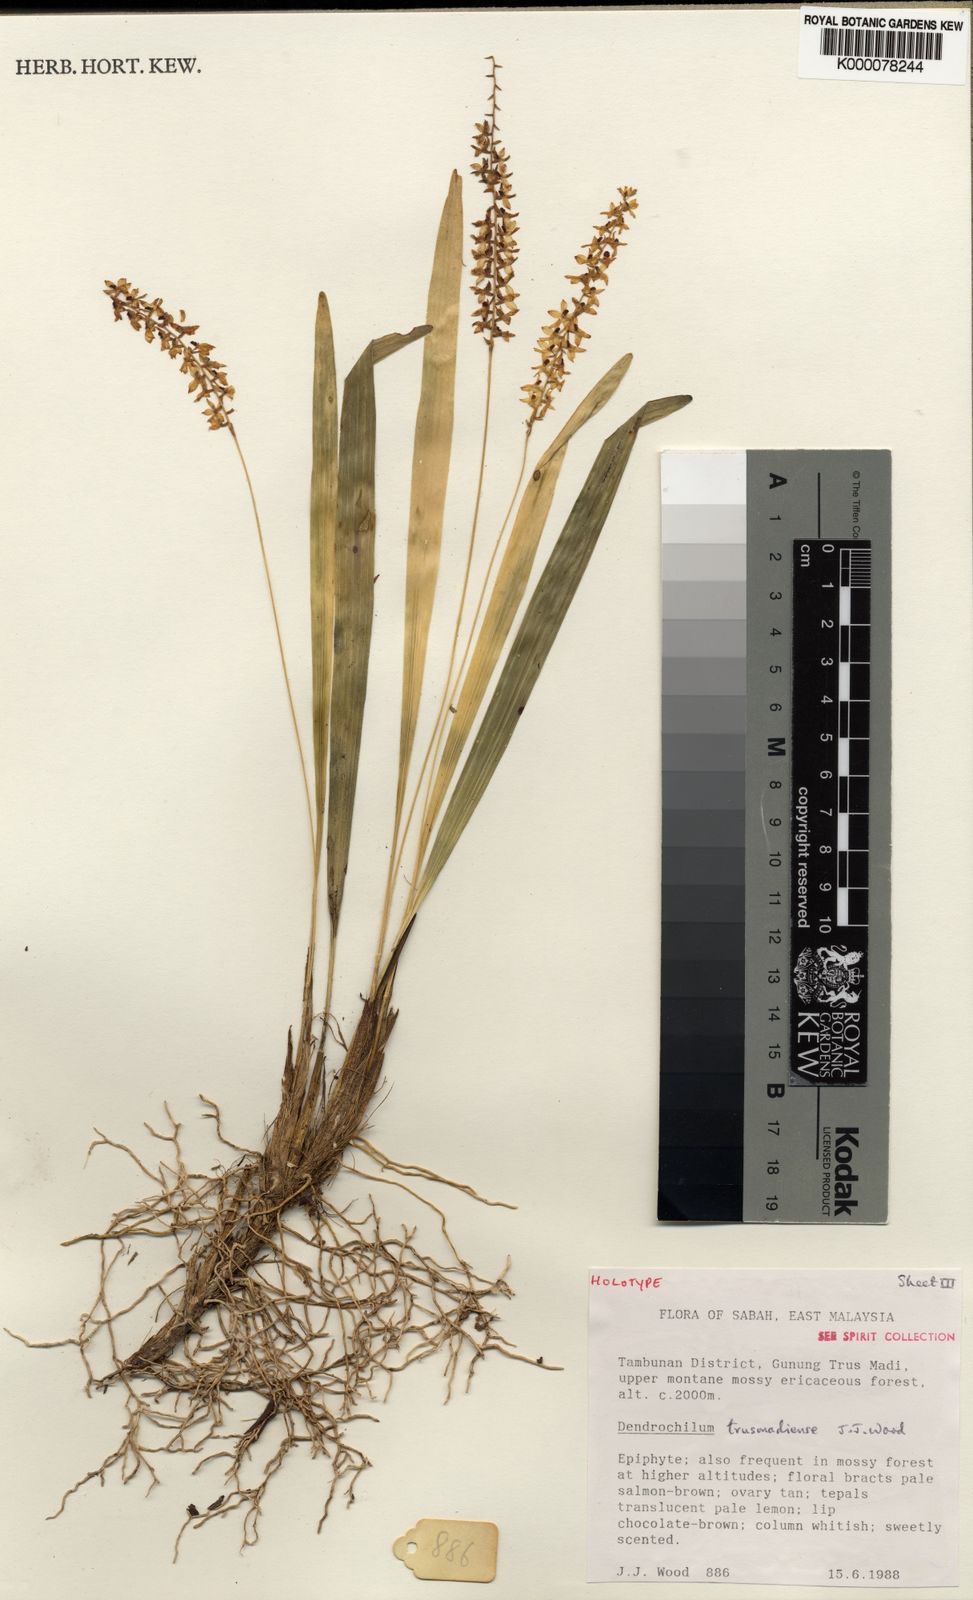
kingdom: Plantae
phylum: Tracheophyta
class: Liliopsida
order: Asparagales
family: Orchidaceae
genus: Coelogyne
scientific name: Coelogyne trusmadiensis
